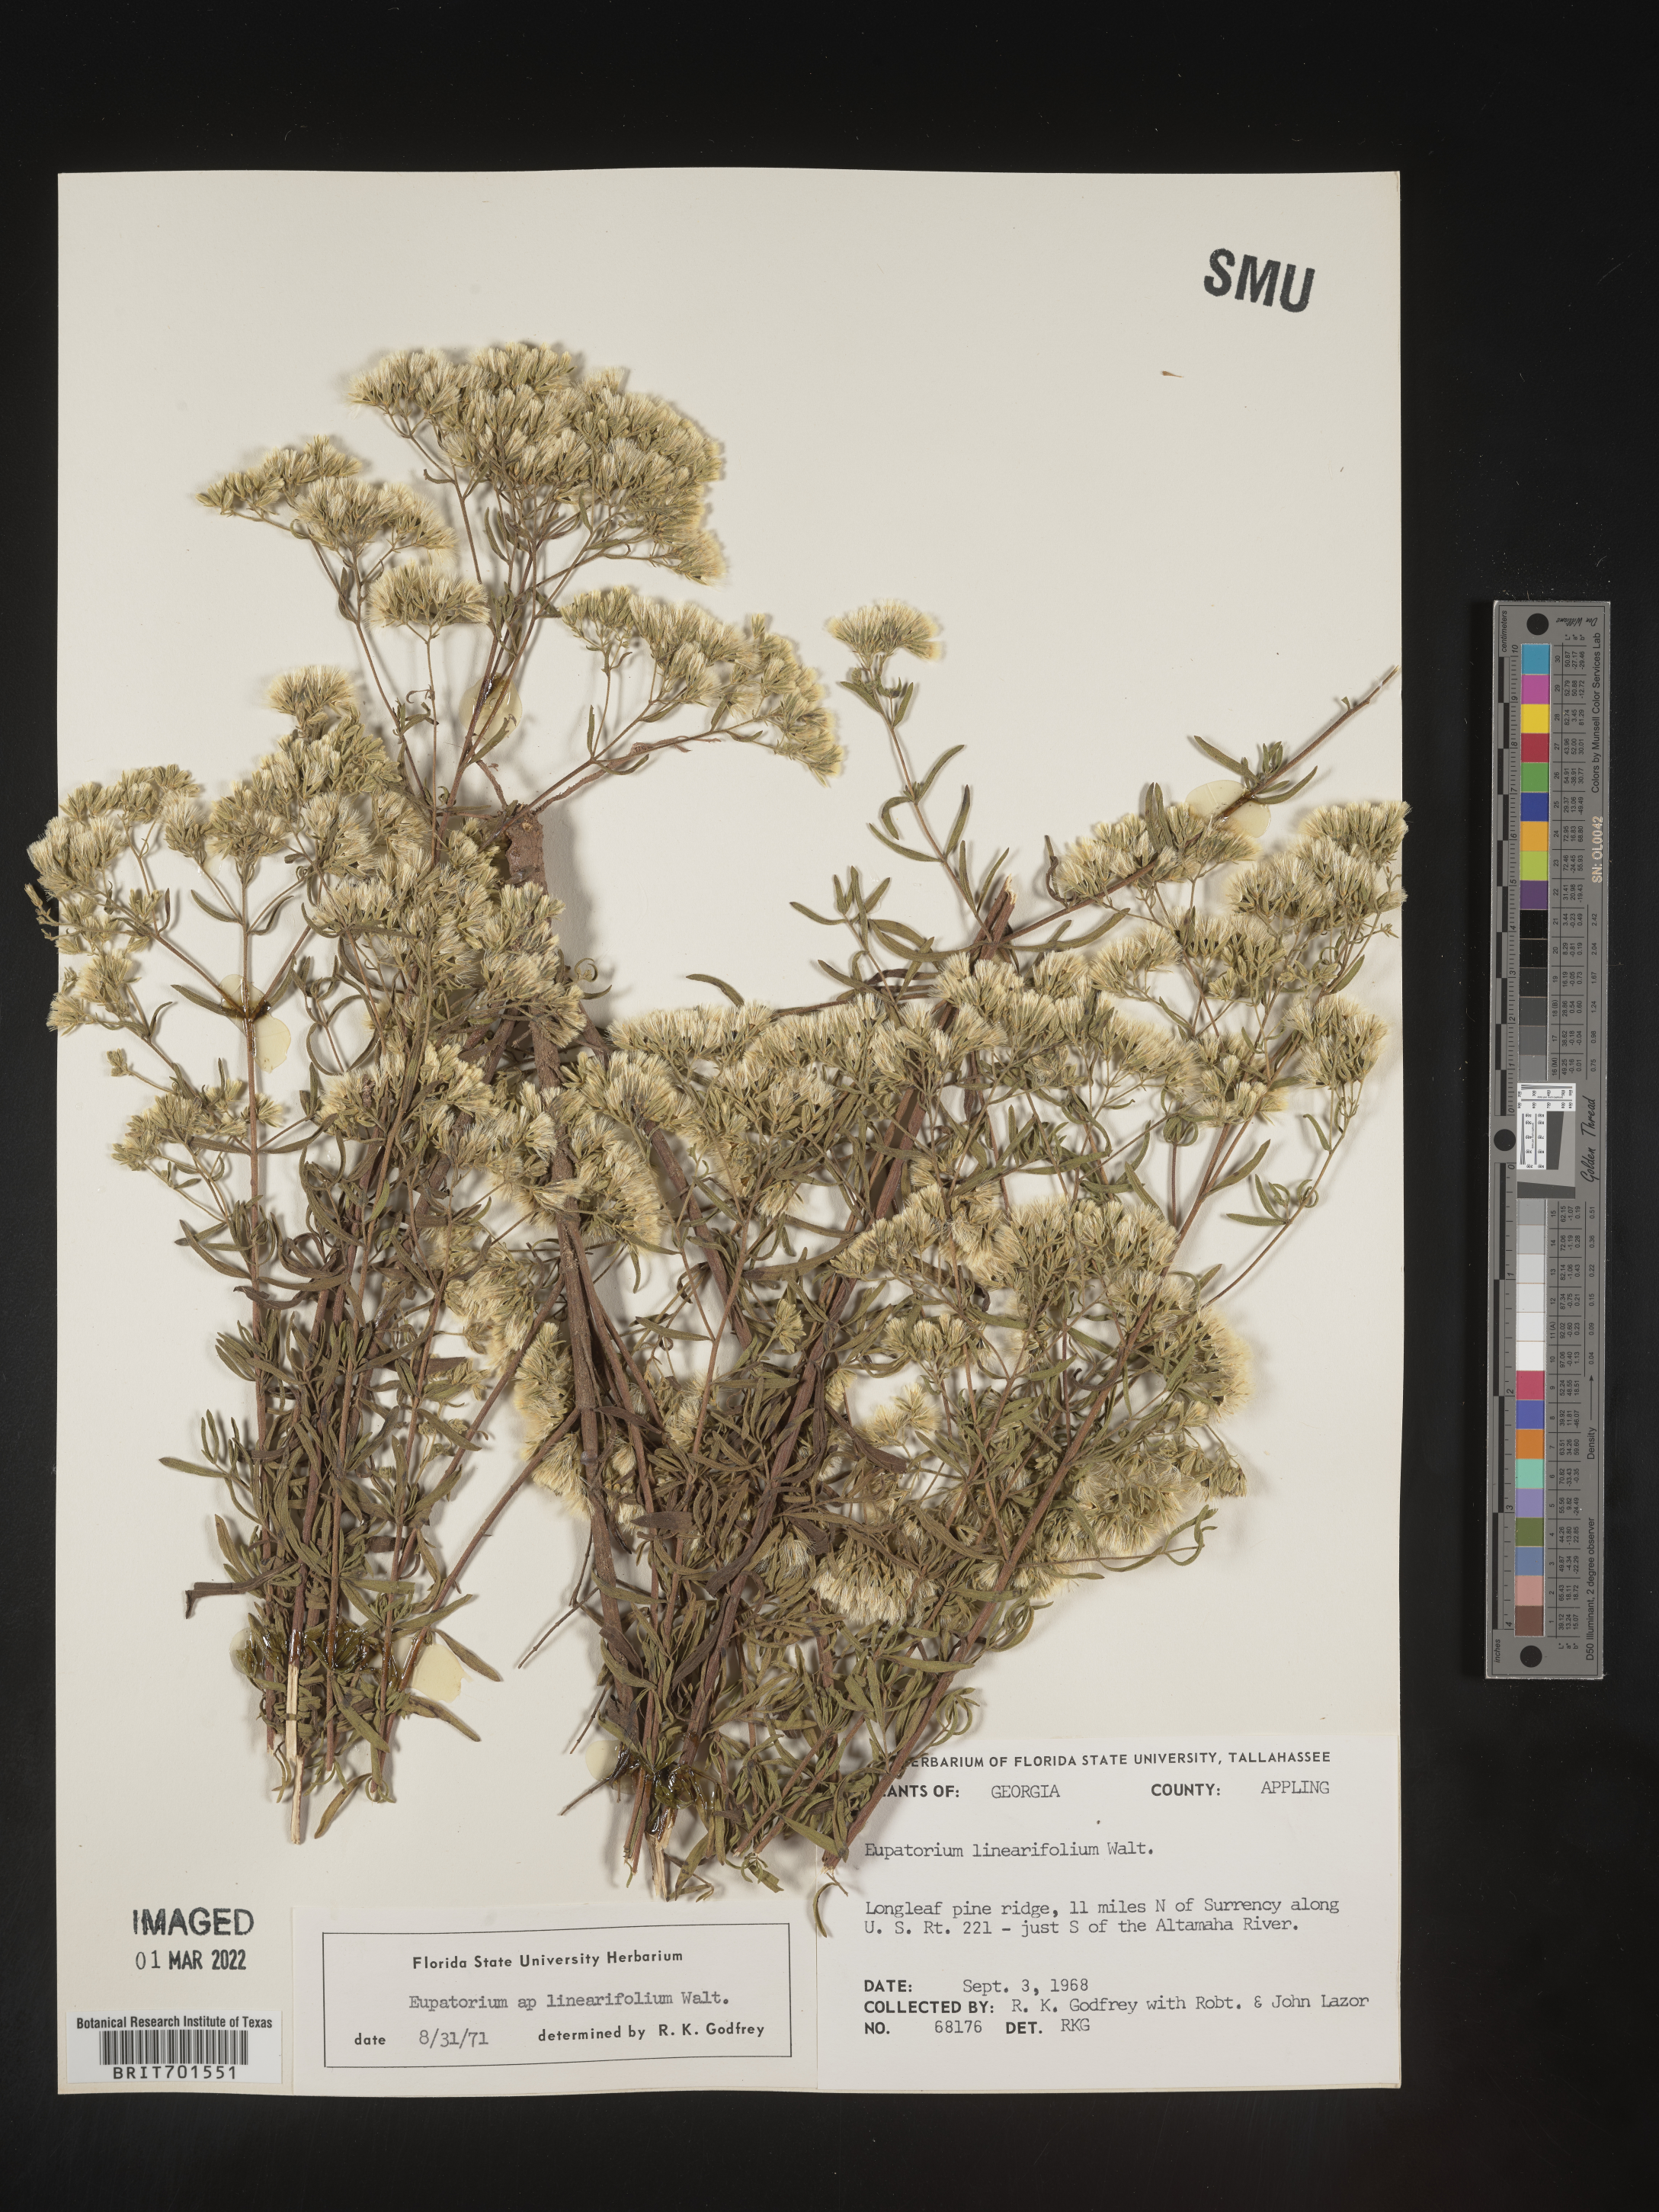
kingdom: Plantae
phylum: Tracheophyta
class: Magnoliopsida
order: Asterales
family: Asteraceae
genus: Eupatorium
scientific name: Eupatorium linearifolium
